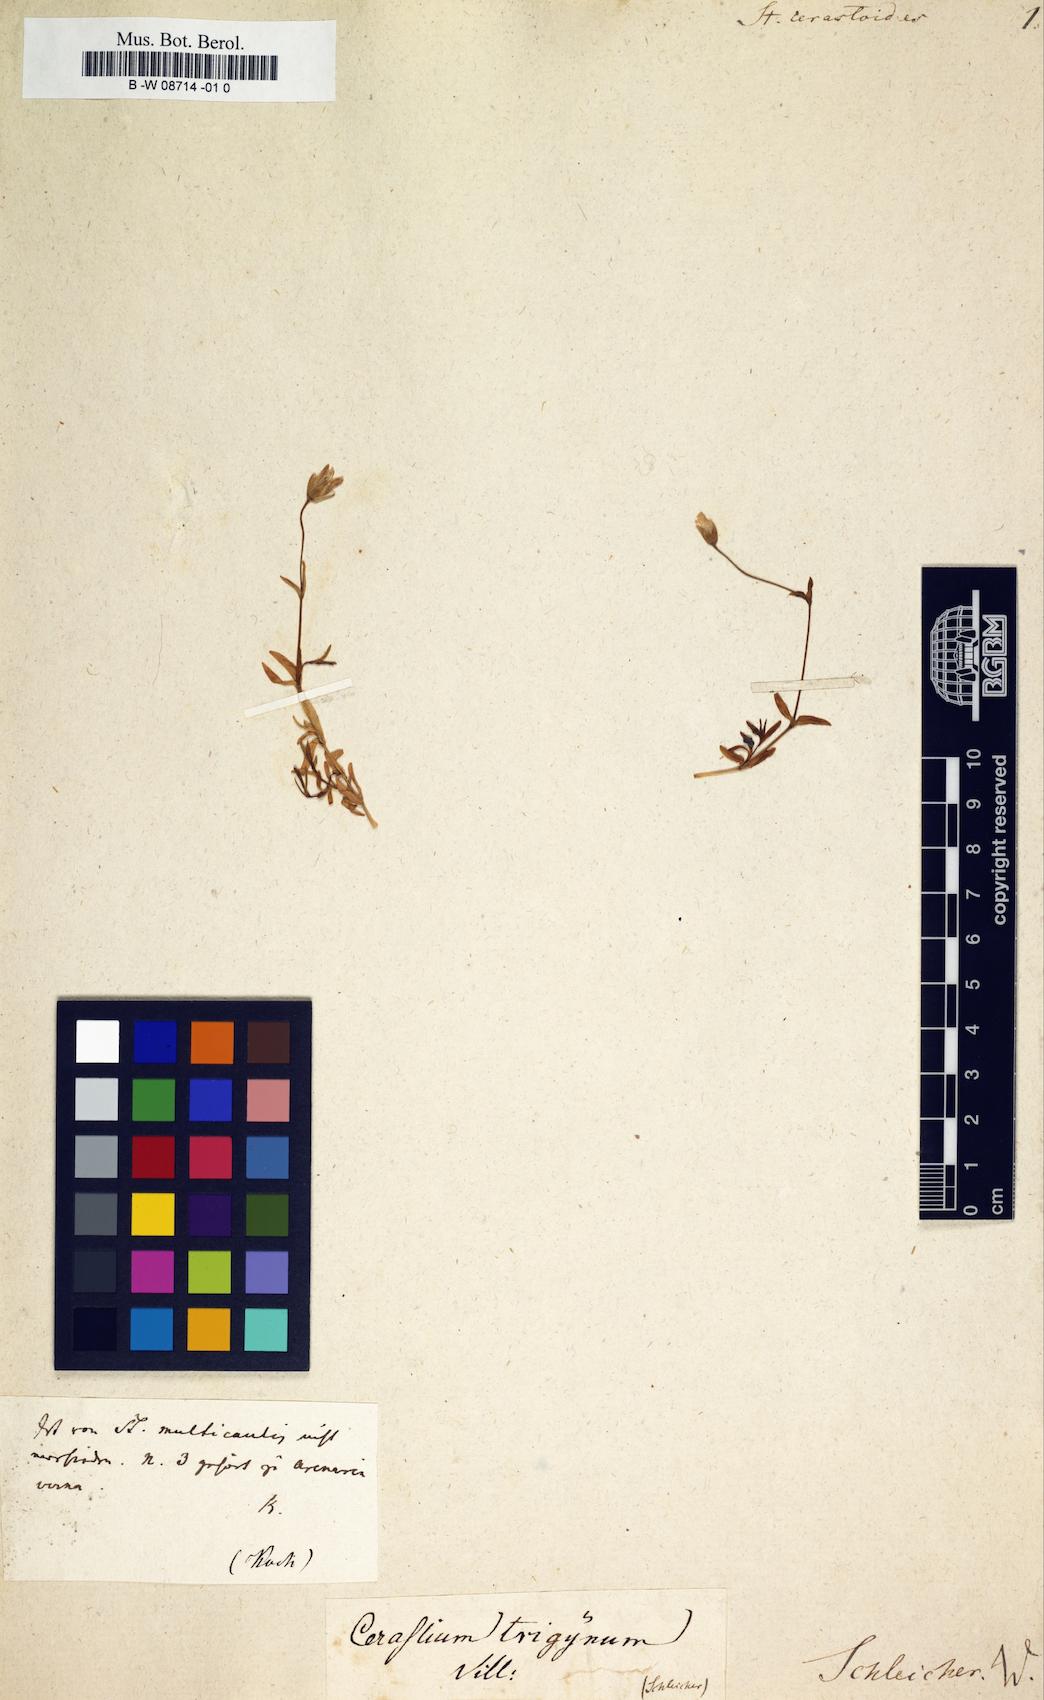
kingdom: Plantae
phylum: Tracheophyta
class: Magnoliopsida
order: Caryophyllales
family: Caryophyllaceae
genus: Stellaria
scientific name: Stellaria cerastoides
